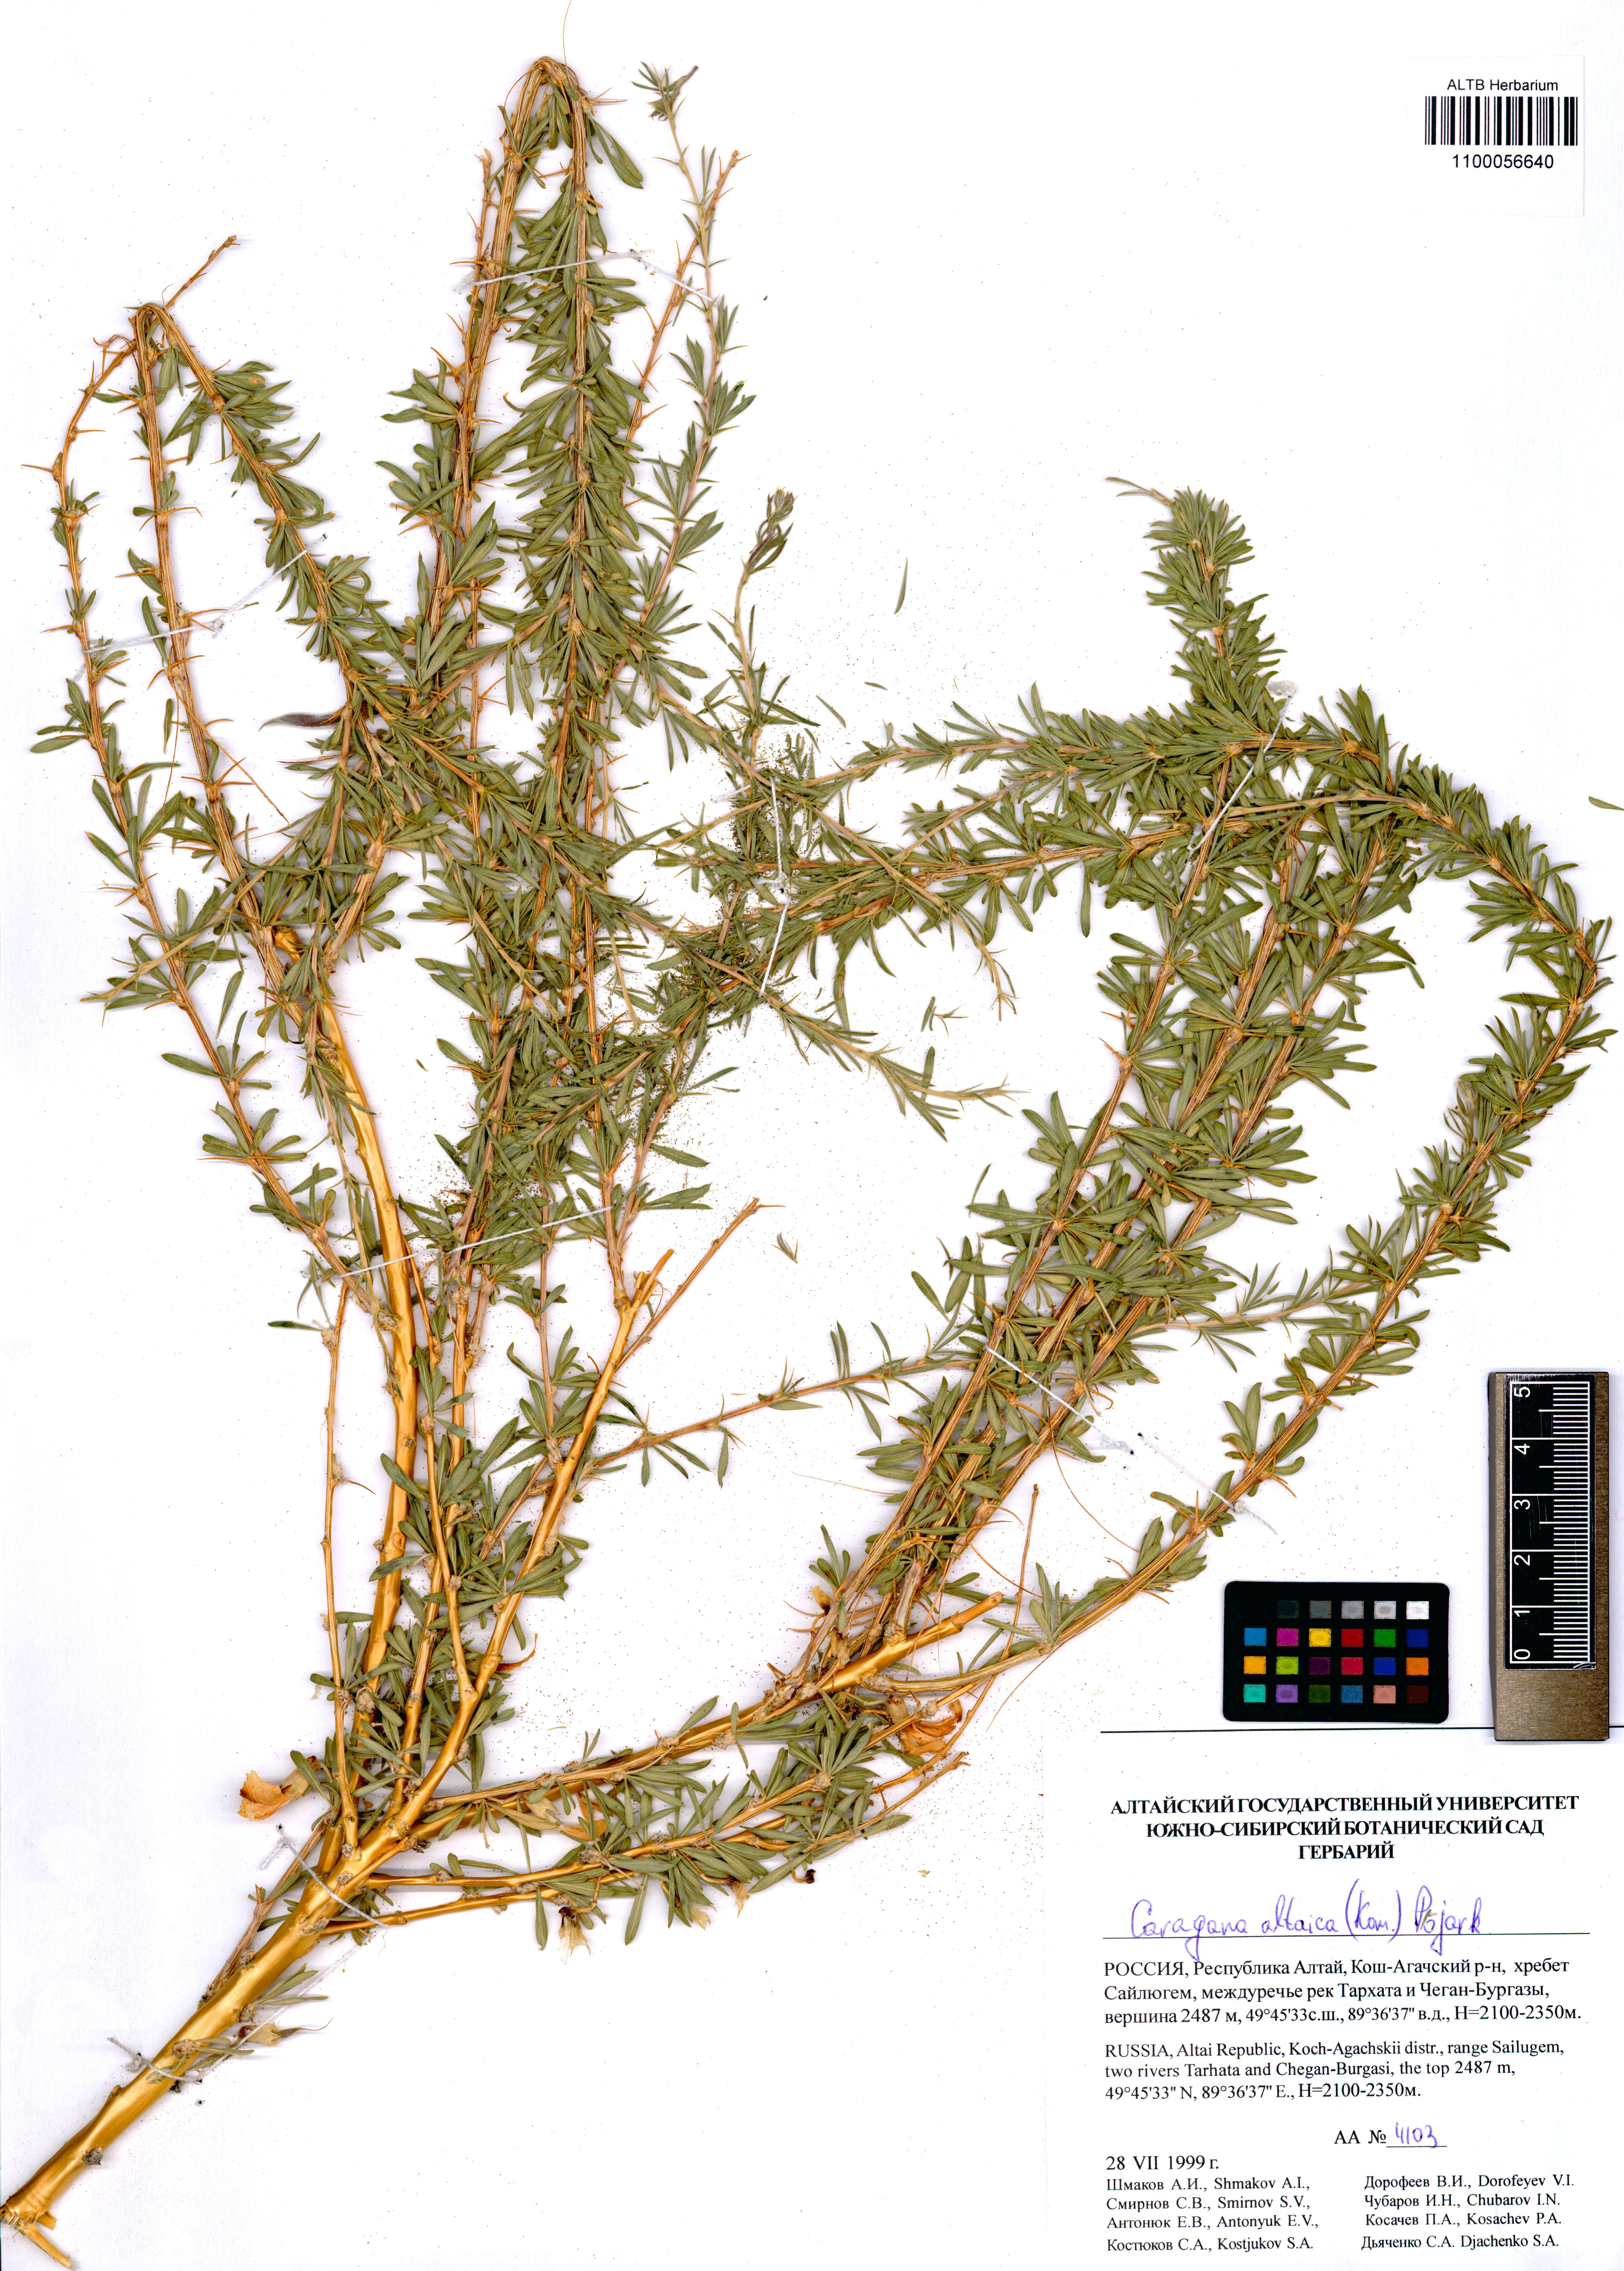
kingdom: Plantae
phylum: Tracheophyta
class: Magnoliopsida
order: Fabales
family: Fabaceae
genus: Caragana
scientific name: Caragana pygmaea
